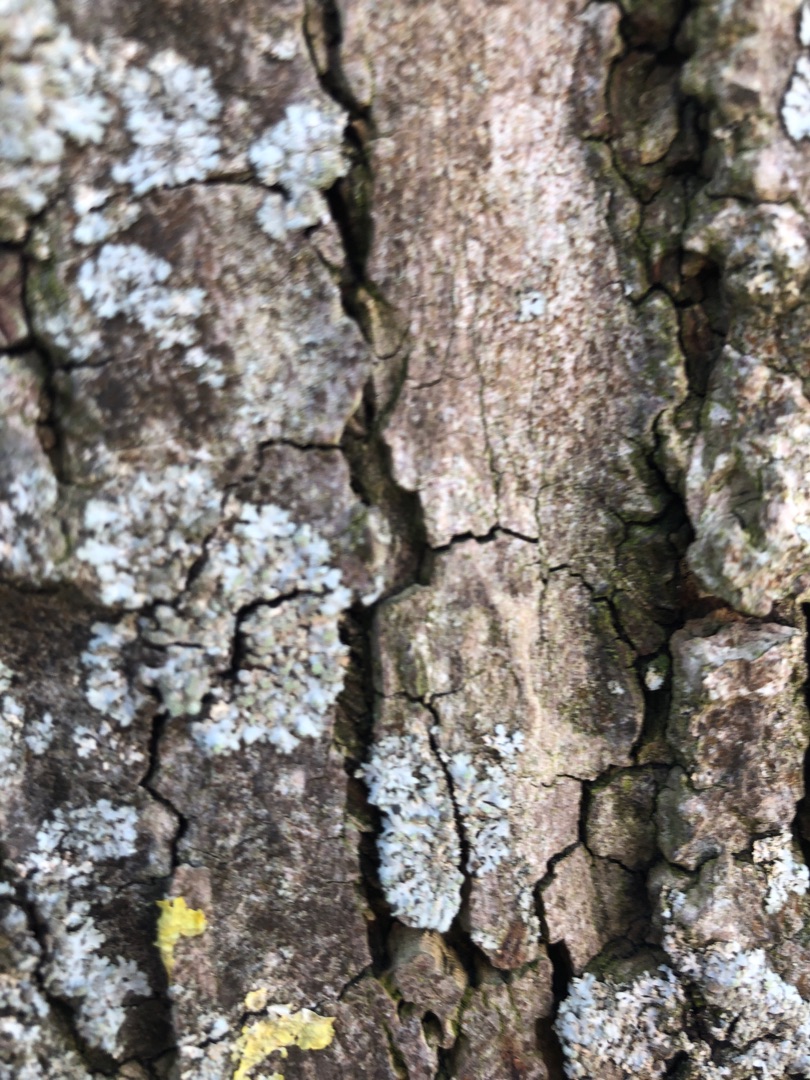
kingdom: Fungi
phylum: Ascomycota
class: Lecanoromycetes
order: Caliciales
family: Physciaceae
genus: Physconia
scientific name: Physconia
